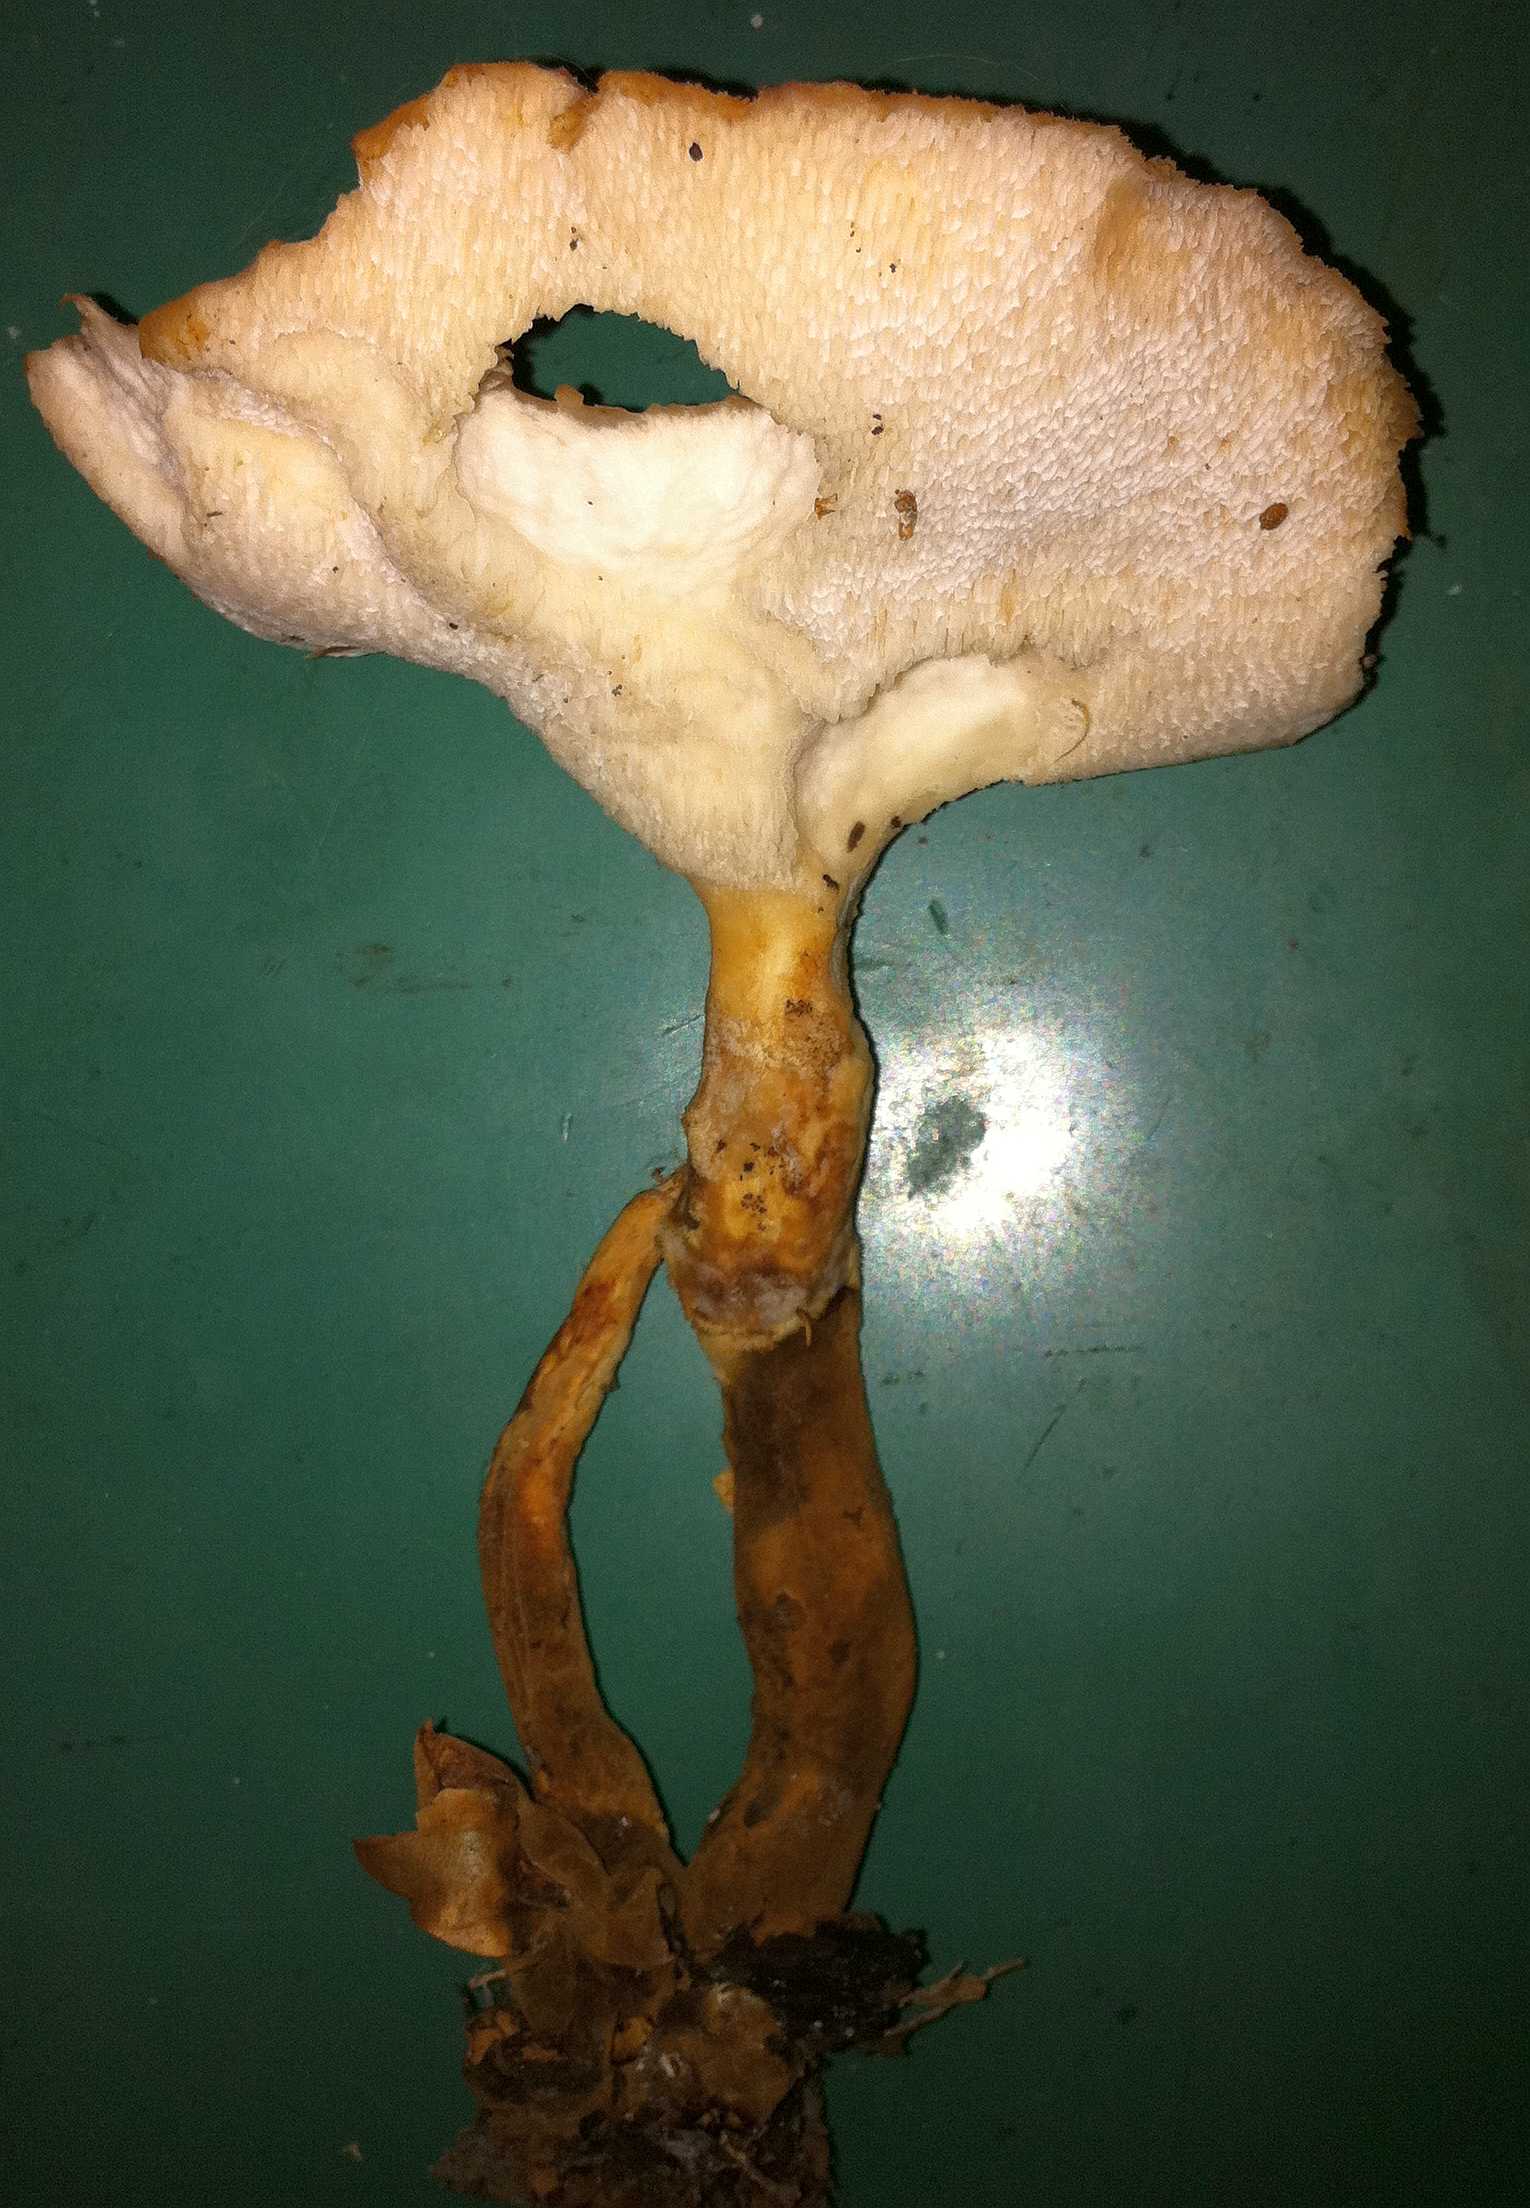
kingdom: Fungi
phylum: Basidiomycota
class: Agaricomycetes
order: Polyporales
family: Polyporaceae
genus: Polyporus
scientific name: Polyporus tuberaster
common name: knoldet stilkporesvamp
